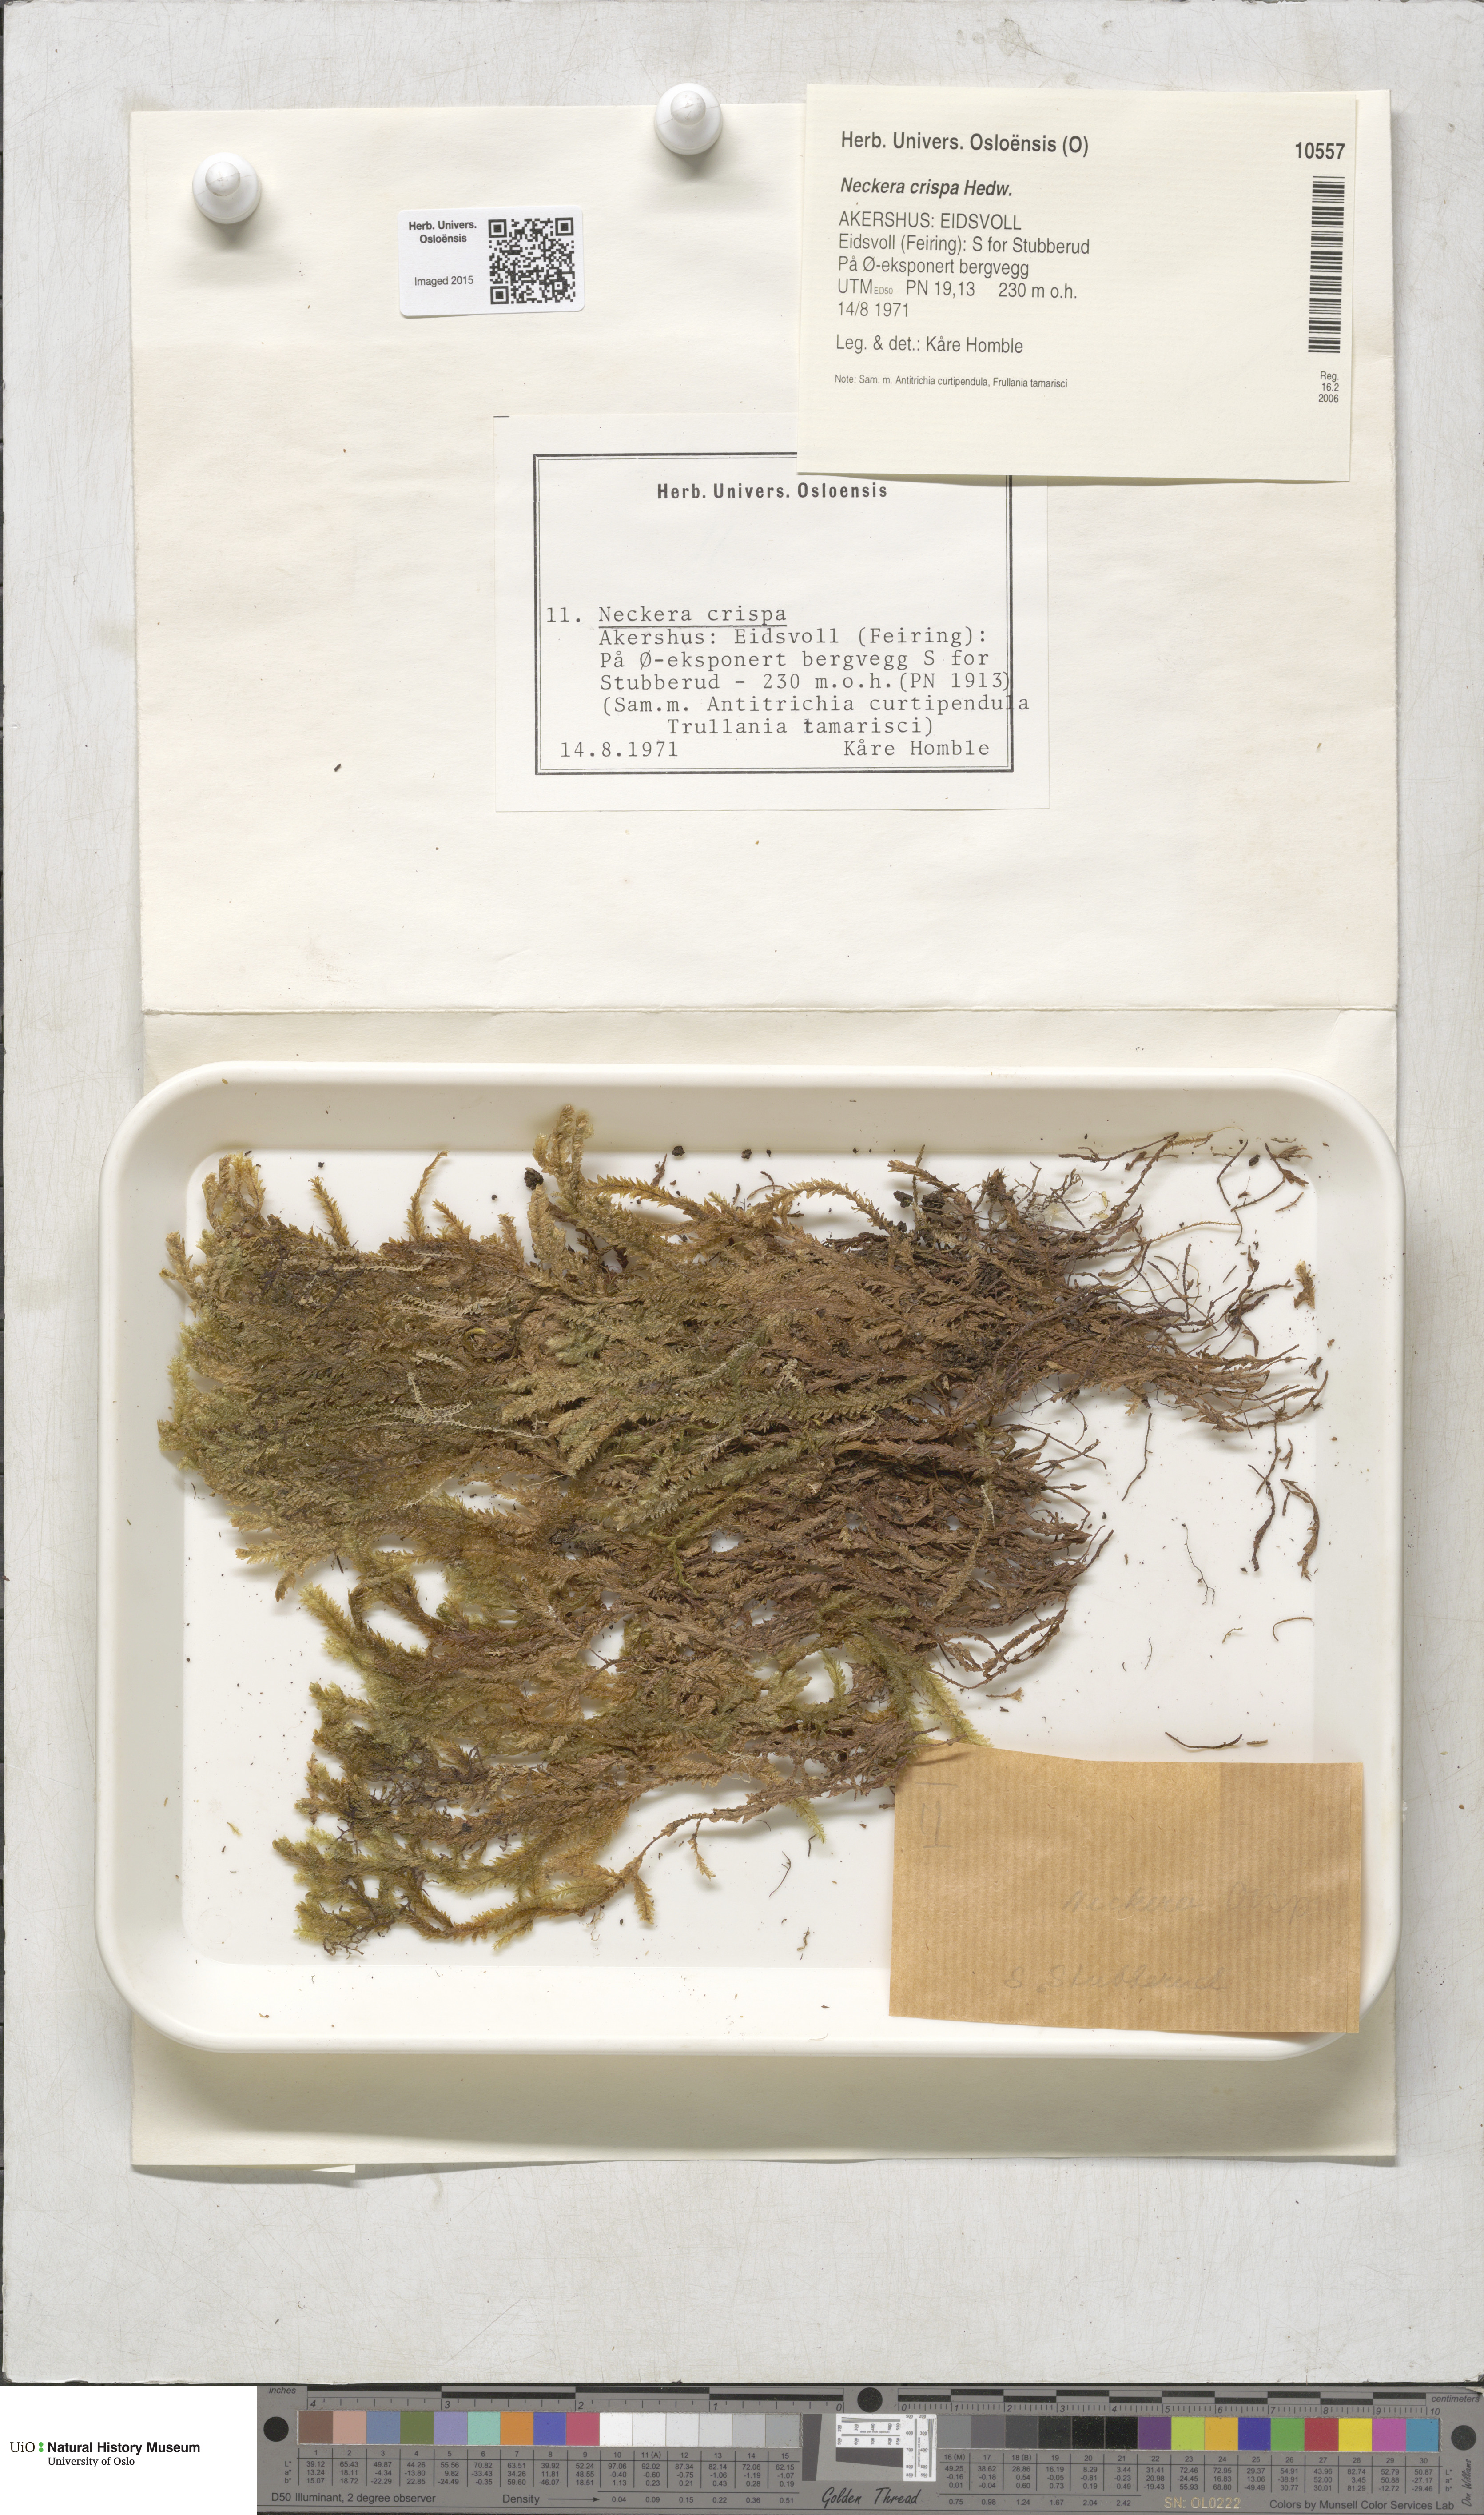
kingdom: Plantae
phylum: Bryophyta
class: Bryopsida
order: Hypnales
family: Neckeraceae
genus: Exsertotheca
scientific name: Exsertotheca crispa
